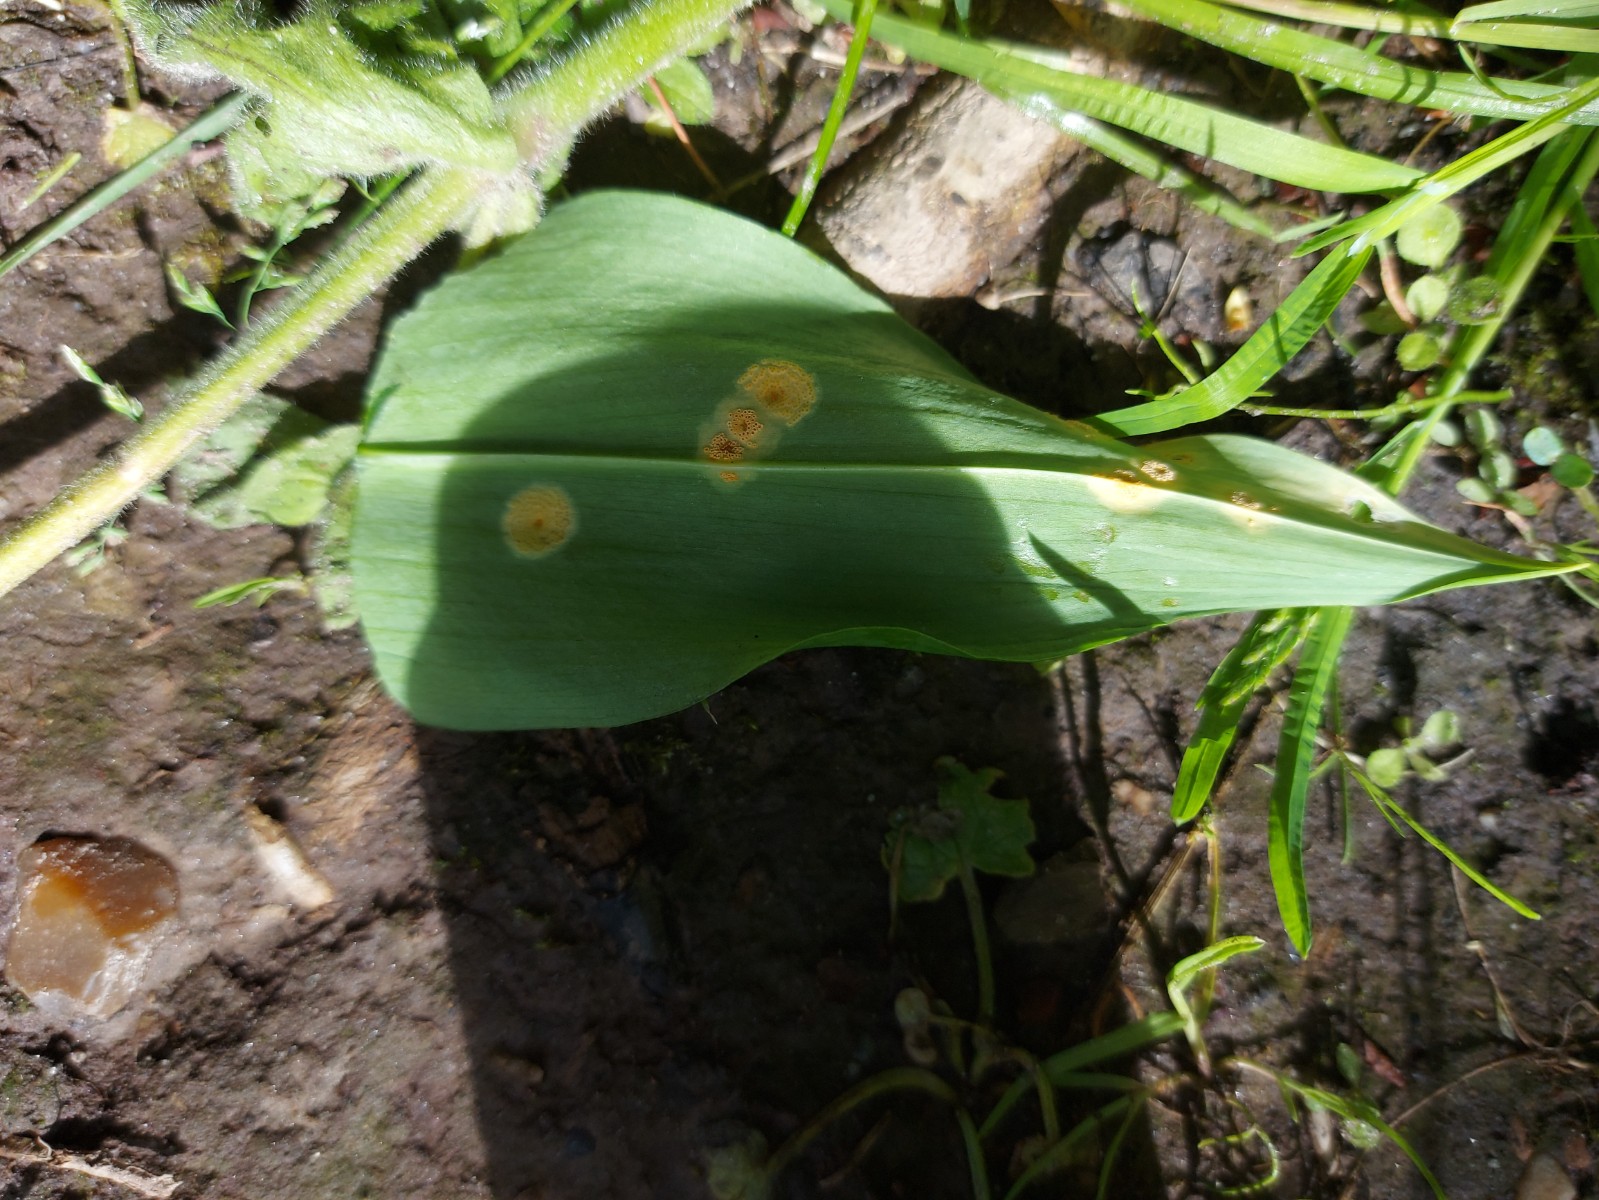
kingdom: Fungi
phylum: Basidiomycota
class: Pucciniomycetes
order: Pucciniales
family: Pucciniaceae
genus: Puccinia
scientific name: Puccinia sessilis
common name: Arum rust
